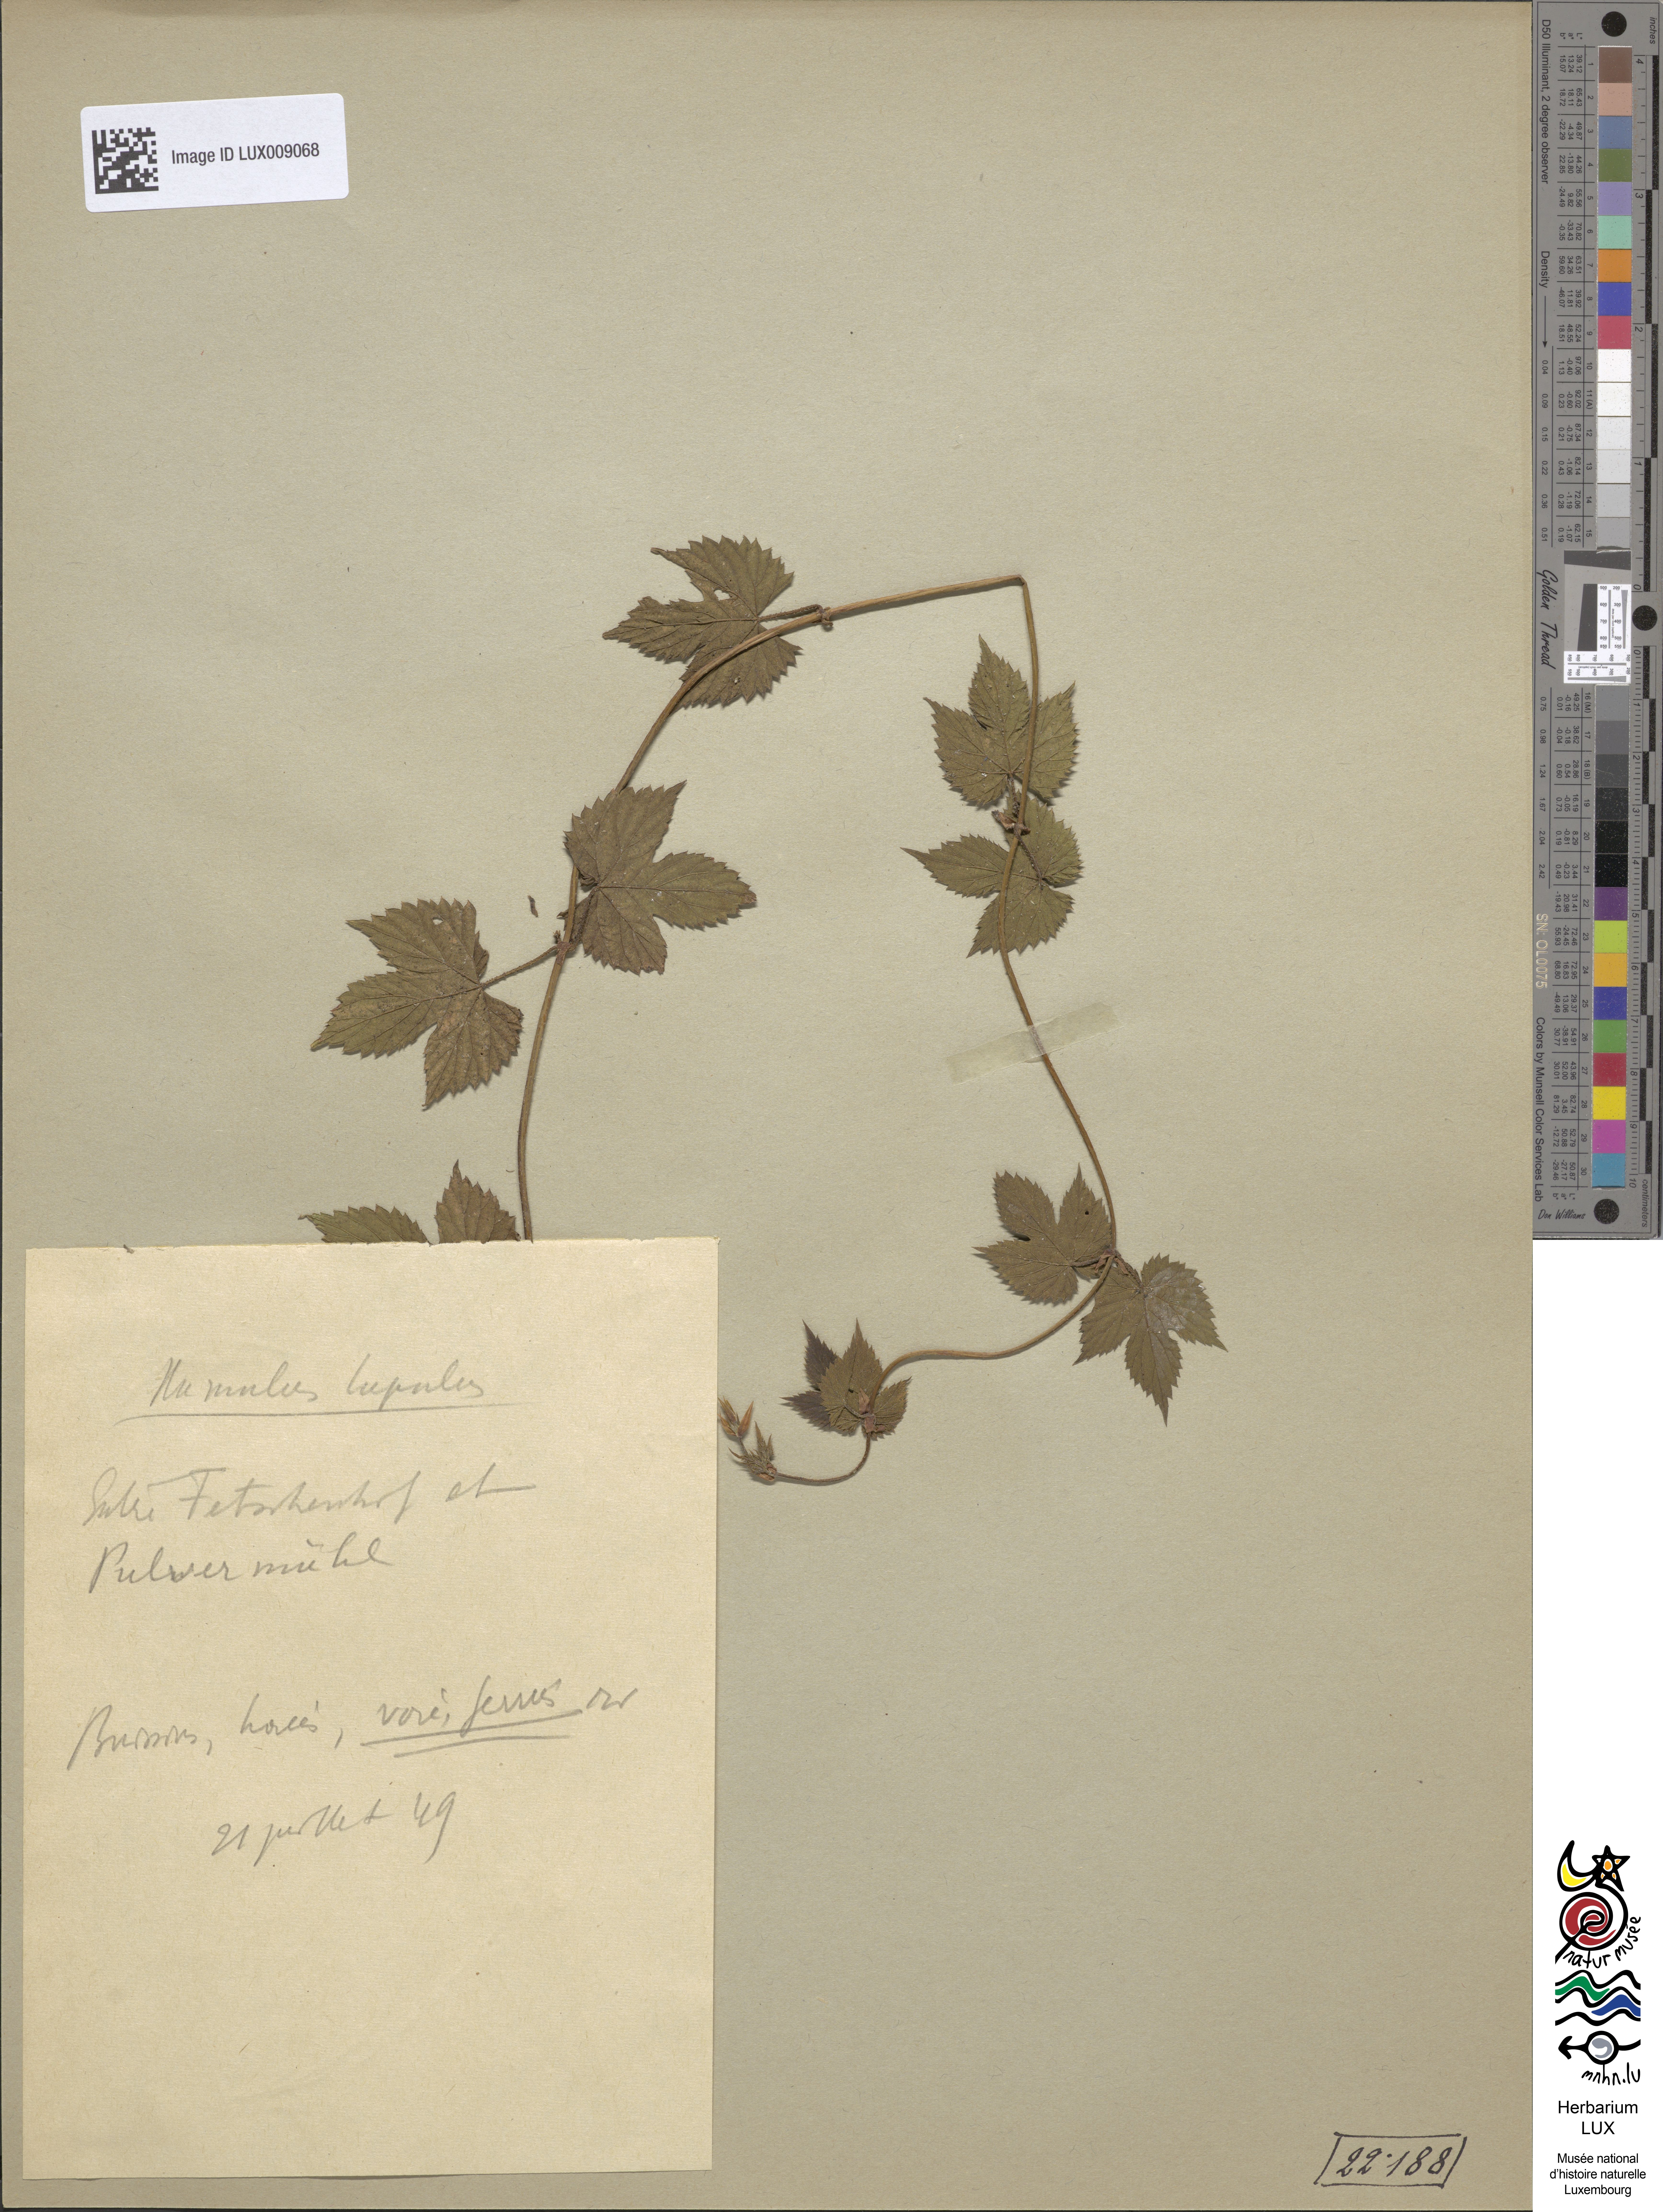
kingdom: Plantae
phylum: Tracheophyta
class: Magnoliopsida
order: Rosales
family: Cannabaceae
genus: Humulus
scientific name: Humulus lupulus
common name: Hop
